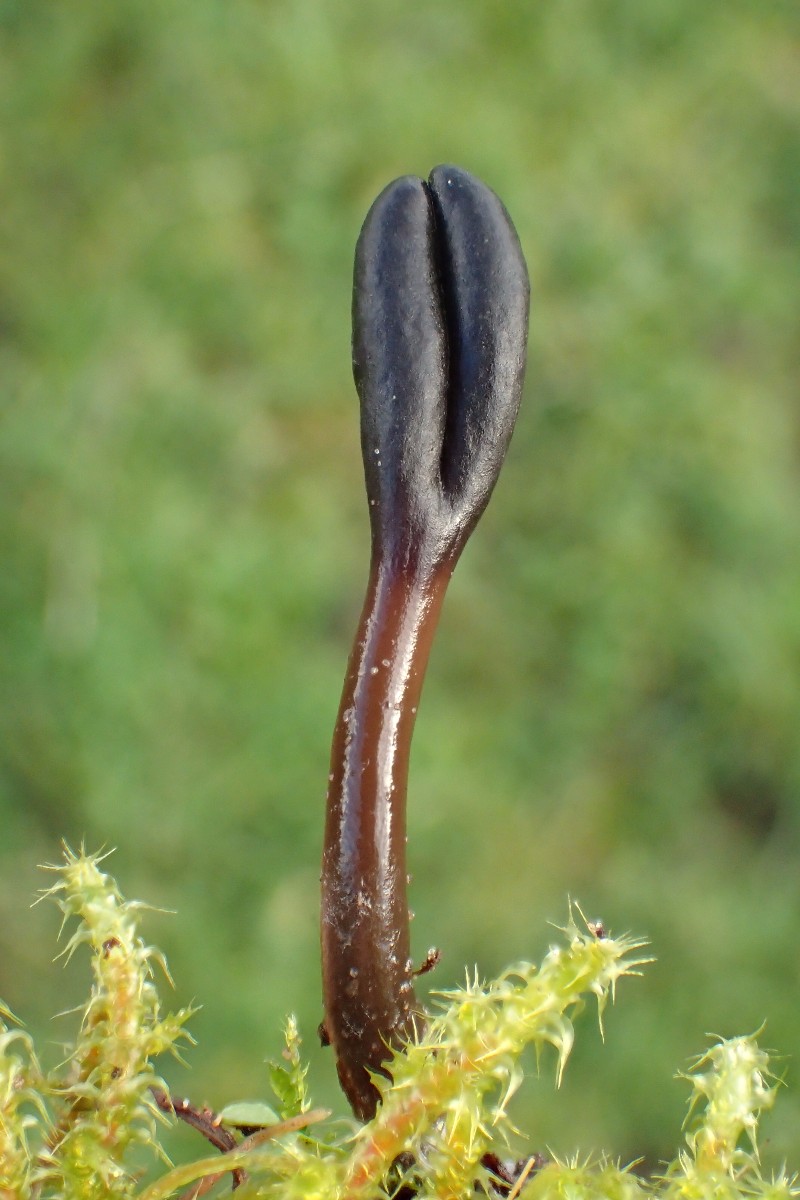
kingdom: Fungi
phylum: Ascomycota
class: Geoglossomycetes
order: Geoglossales
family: Geoglossaceae
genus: Glutinoglossum
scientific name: Glutinoglossum glutinosum
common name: slimet jordtunge
